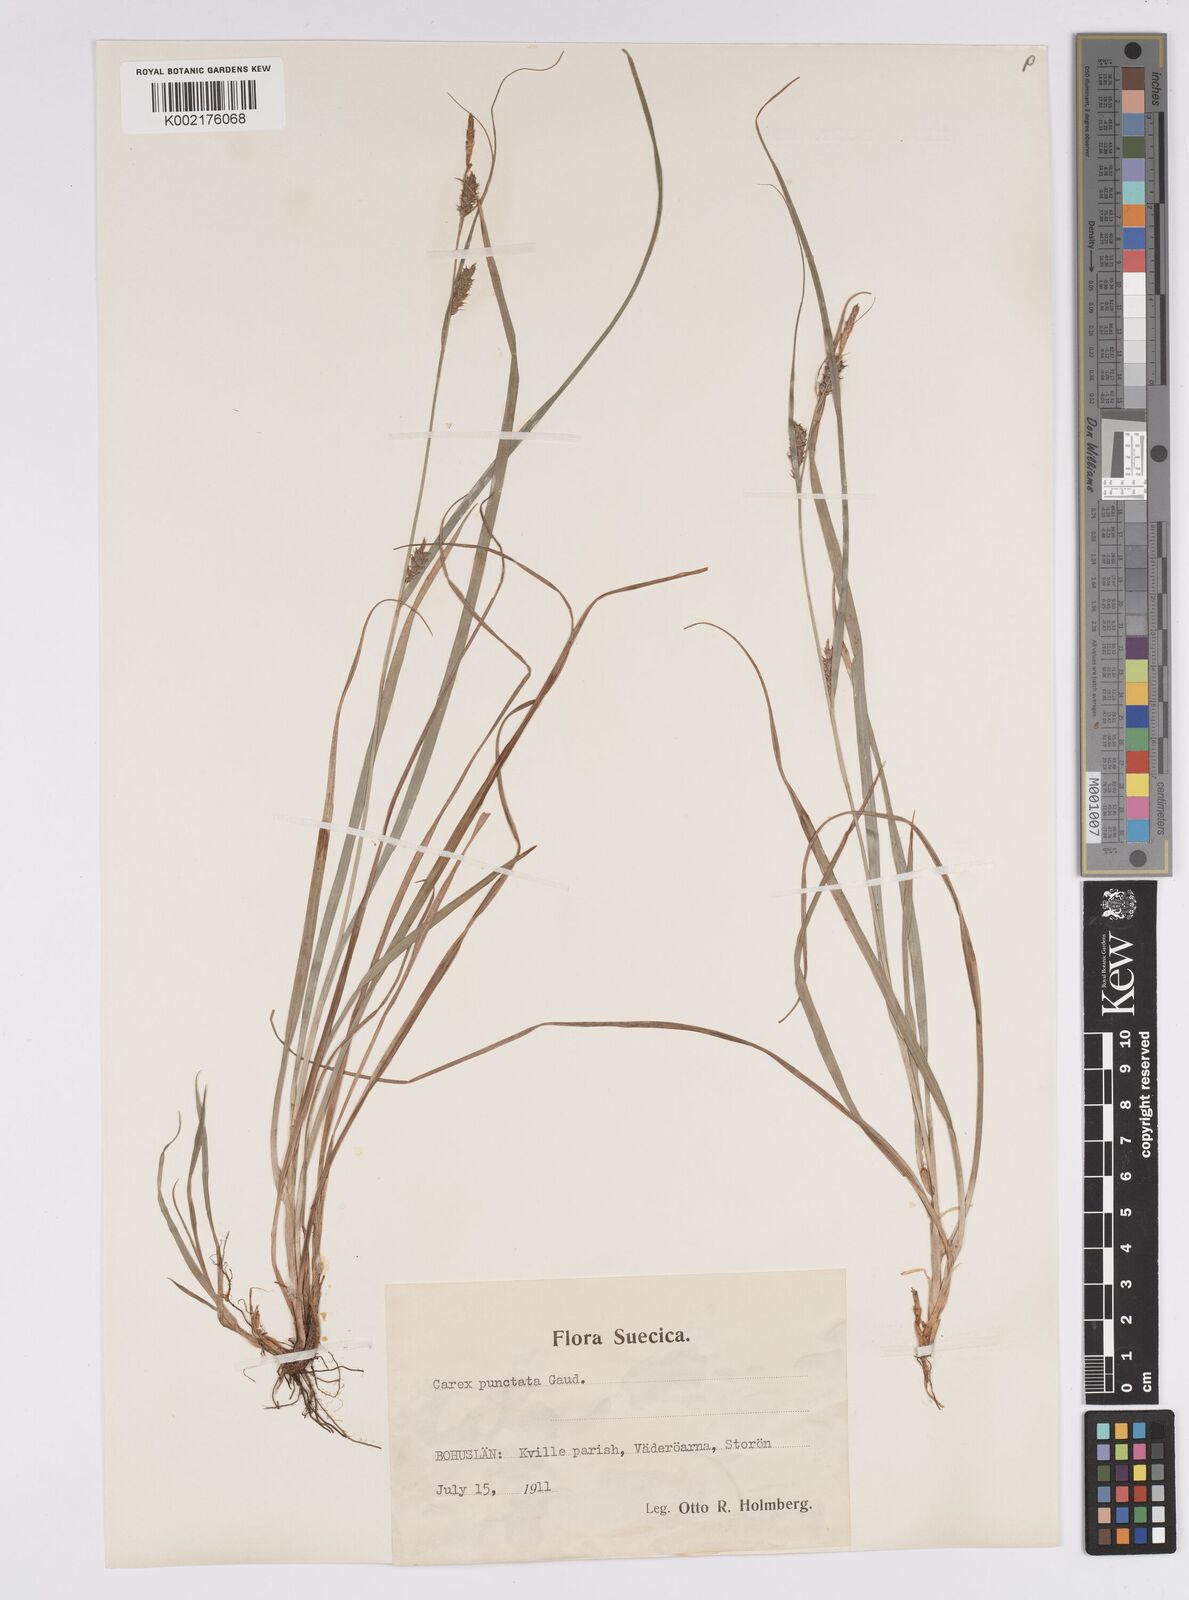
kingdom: Plantae
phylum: Tracheophyta
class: Liliopsida
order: Poales
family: Cyperaceae
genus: Carex
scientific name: Carex punctata
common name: Dotted sedge
